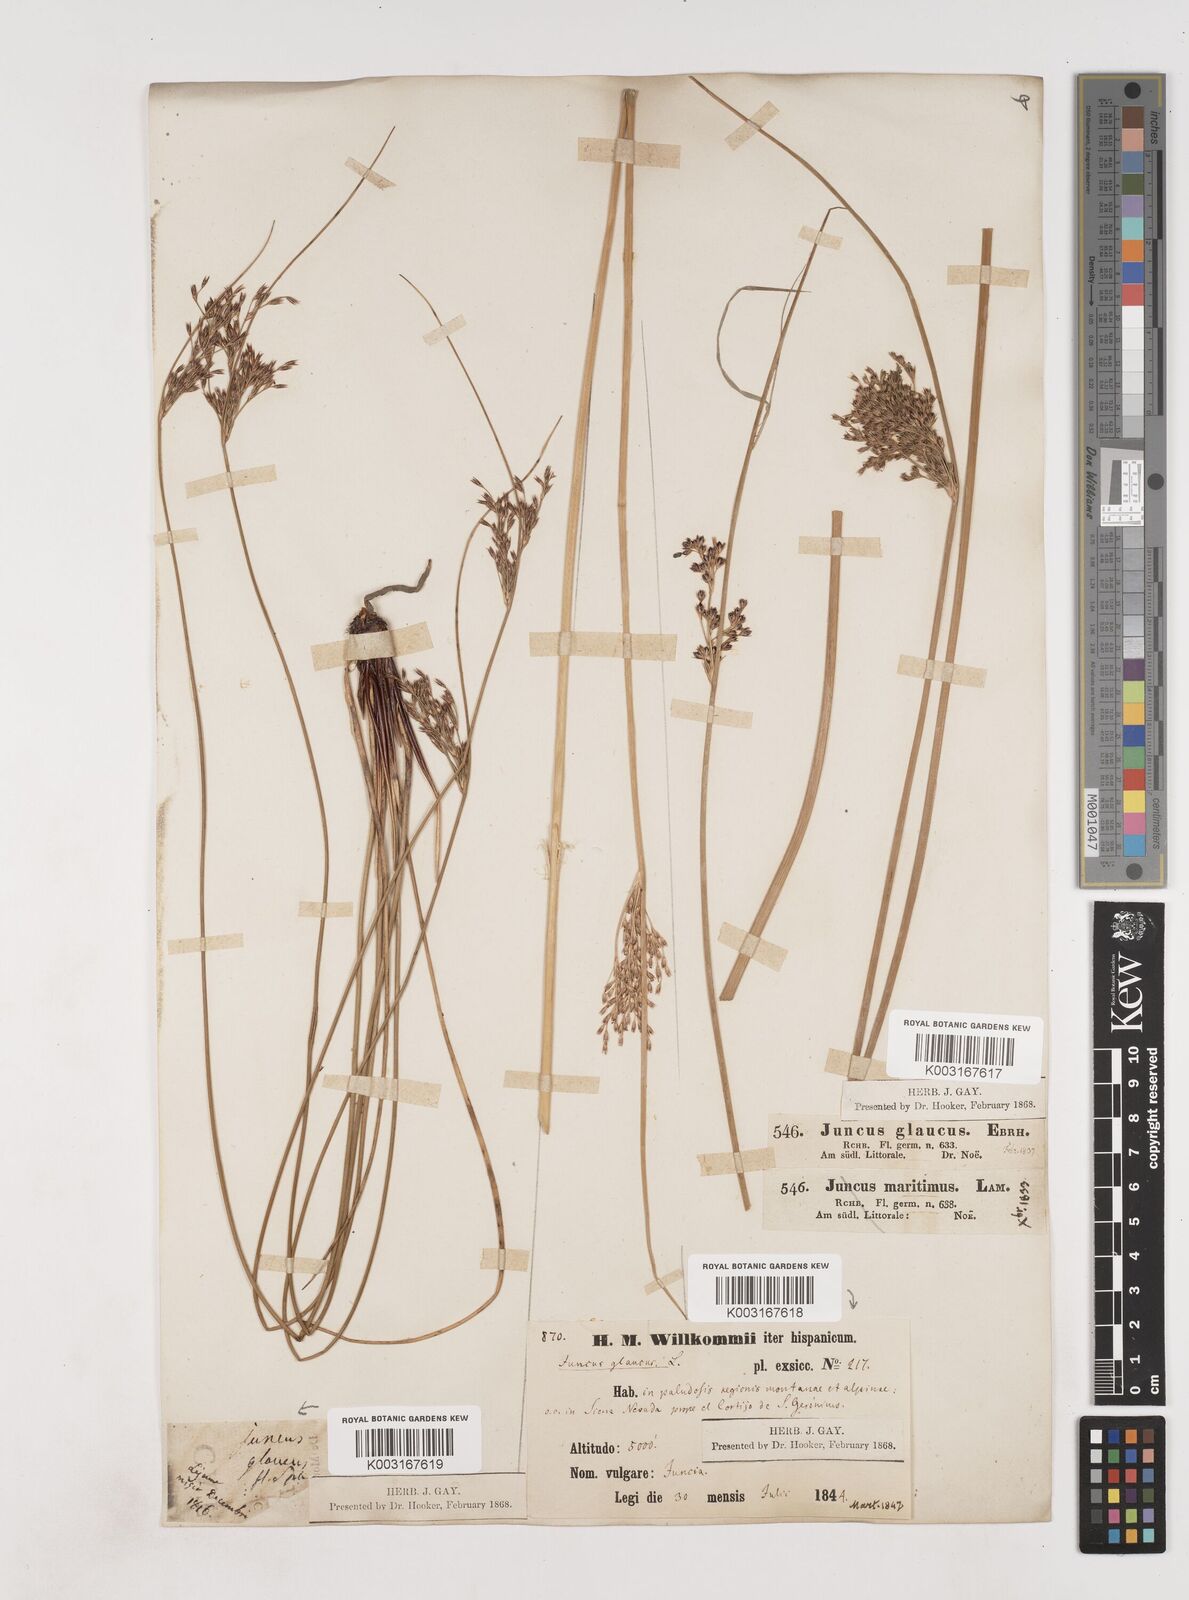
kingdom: Plantae
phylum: Tracheophyta
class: Liliopsida
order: Poales
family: Juncaceae
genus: Juncus
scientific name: Juncus inflexus
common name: Hard rush
